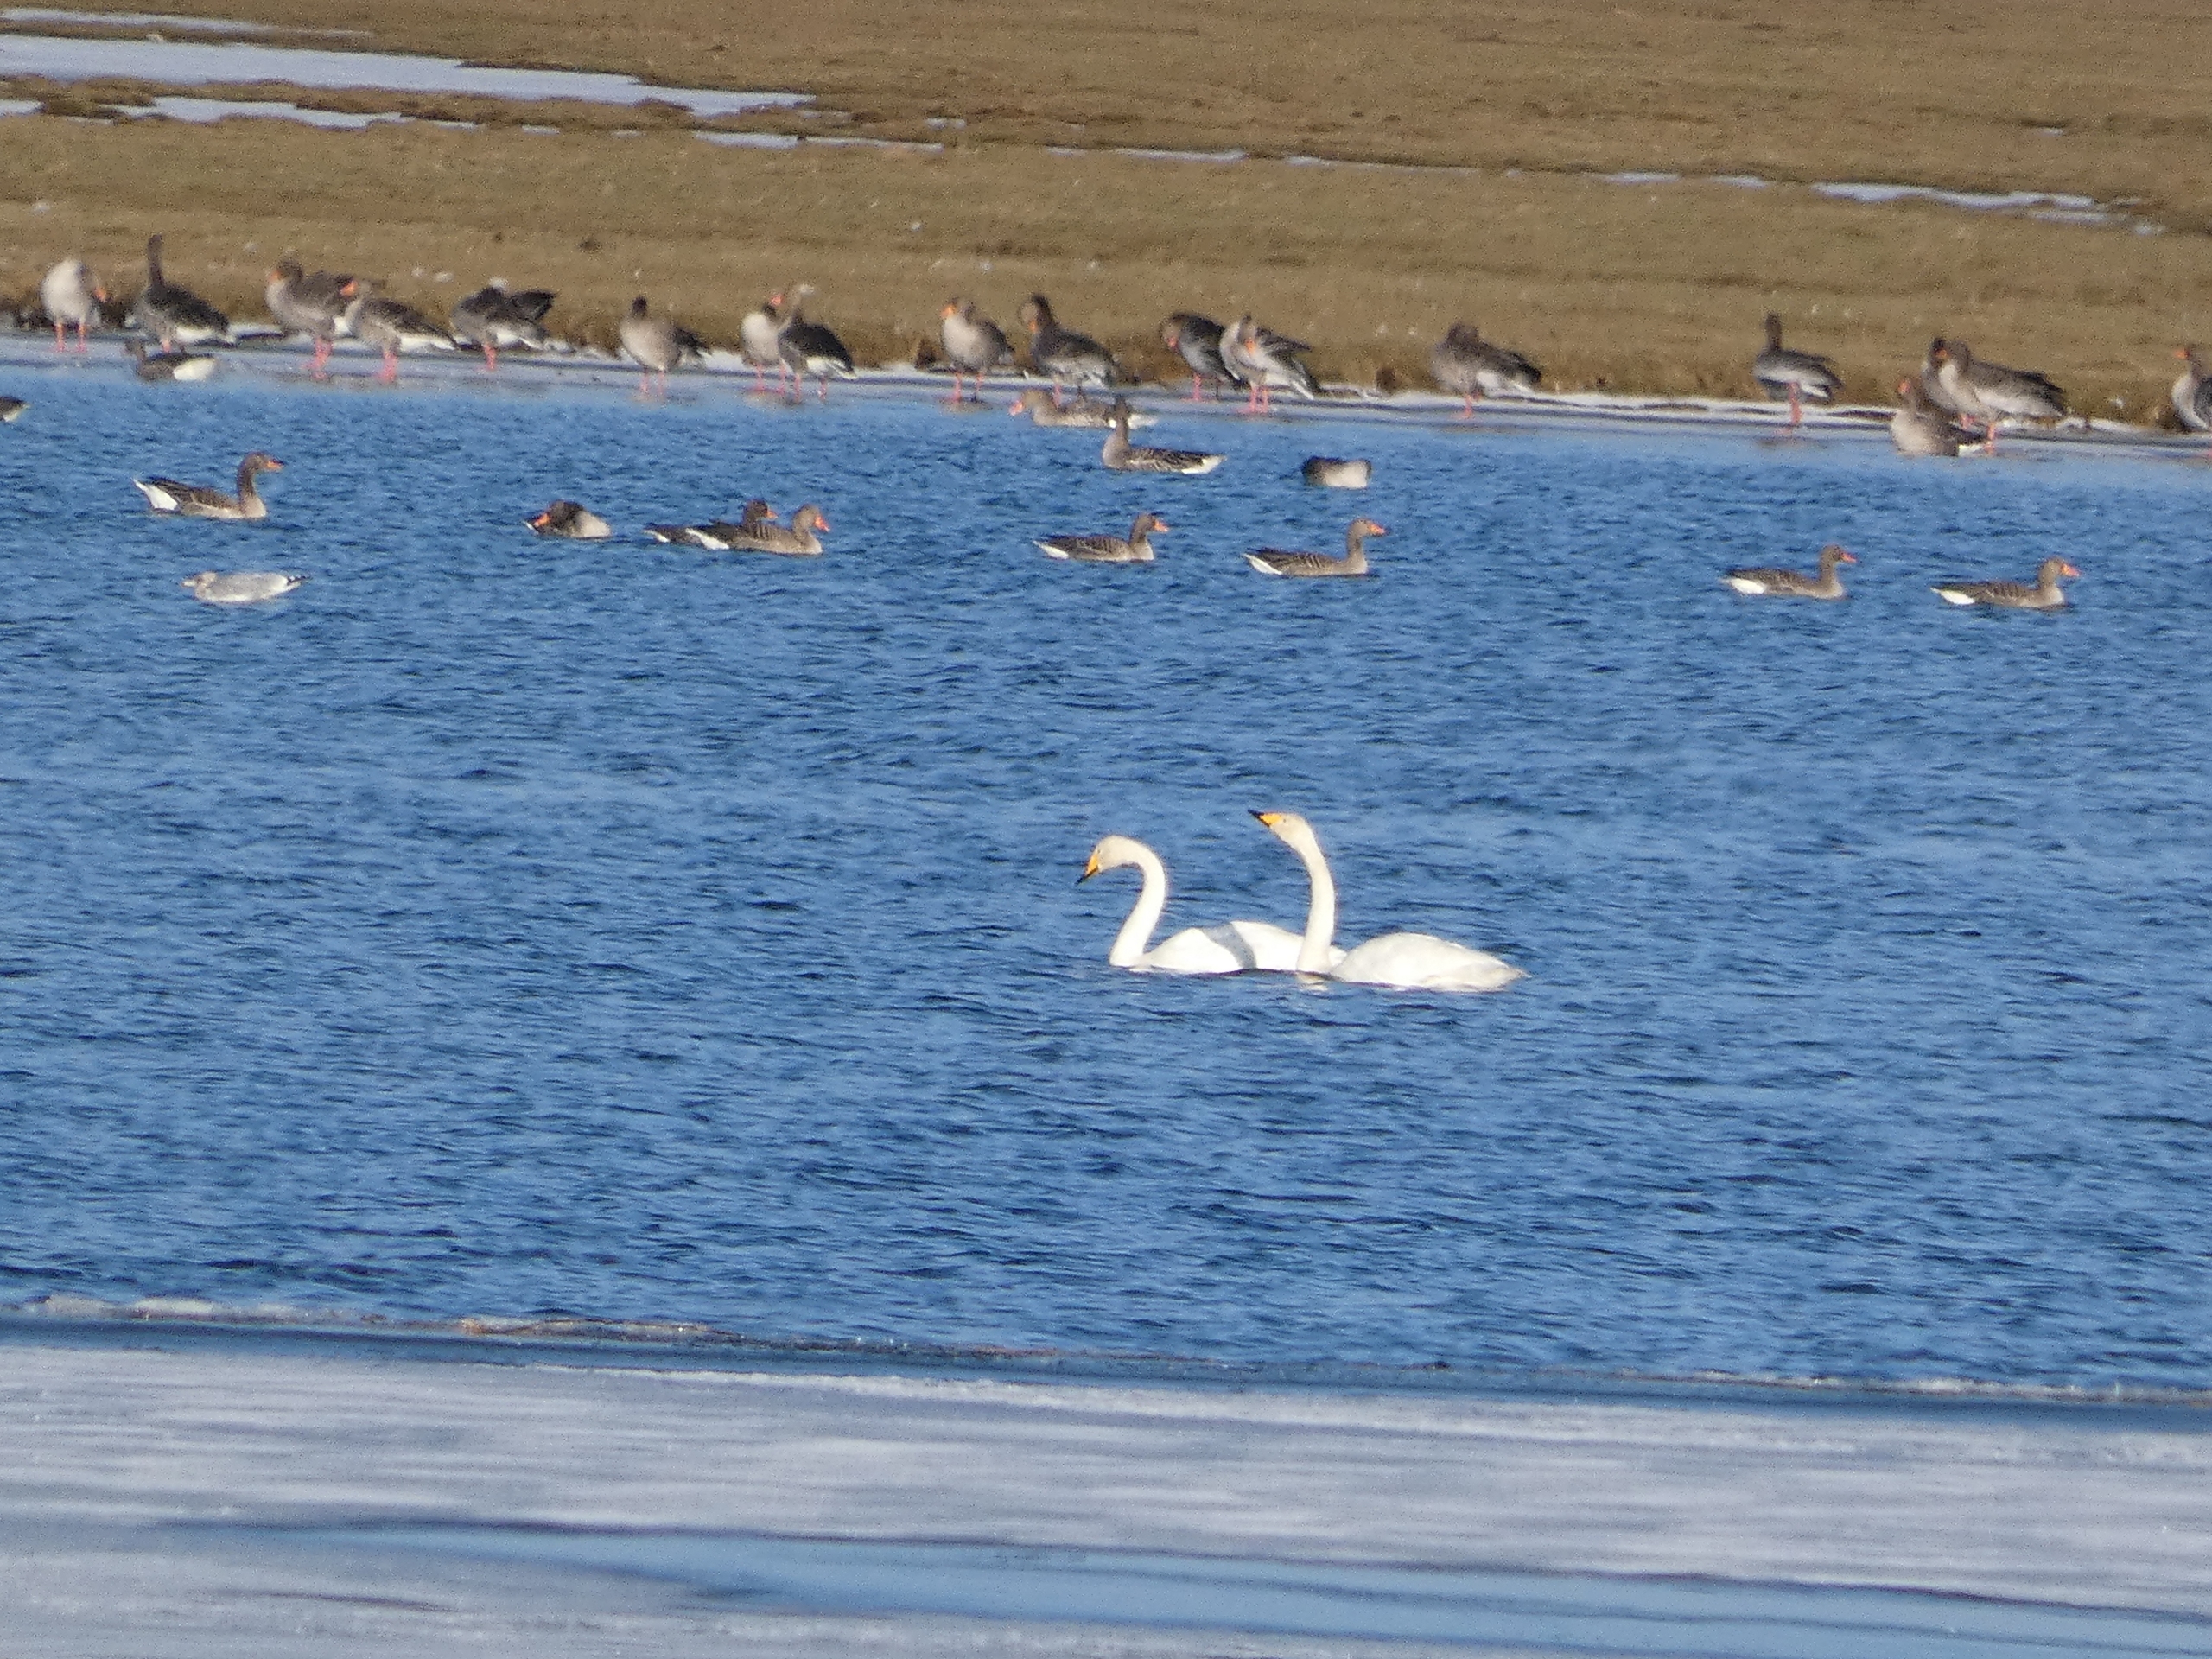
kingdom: Animalia
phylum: Chordata
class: Aves
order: Anseriformes
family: Anatidae
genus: Anser
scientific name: Anser anser
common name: Grågås
